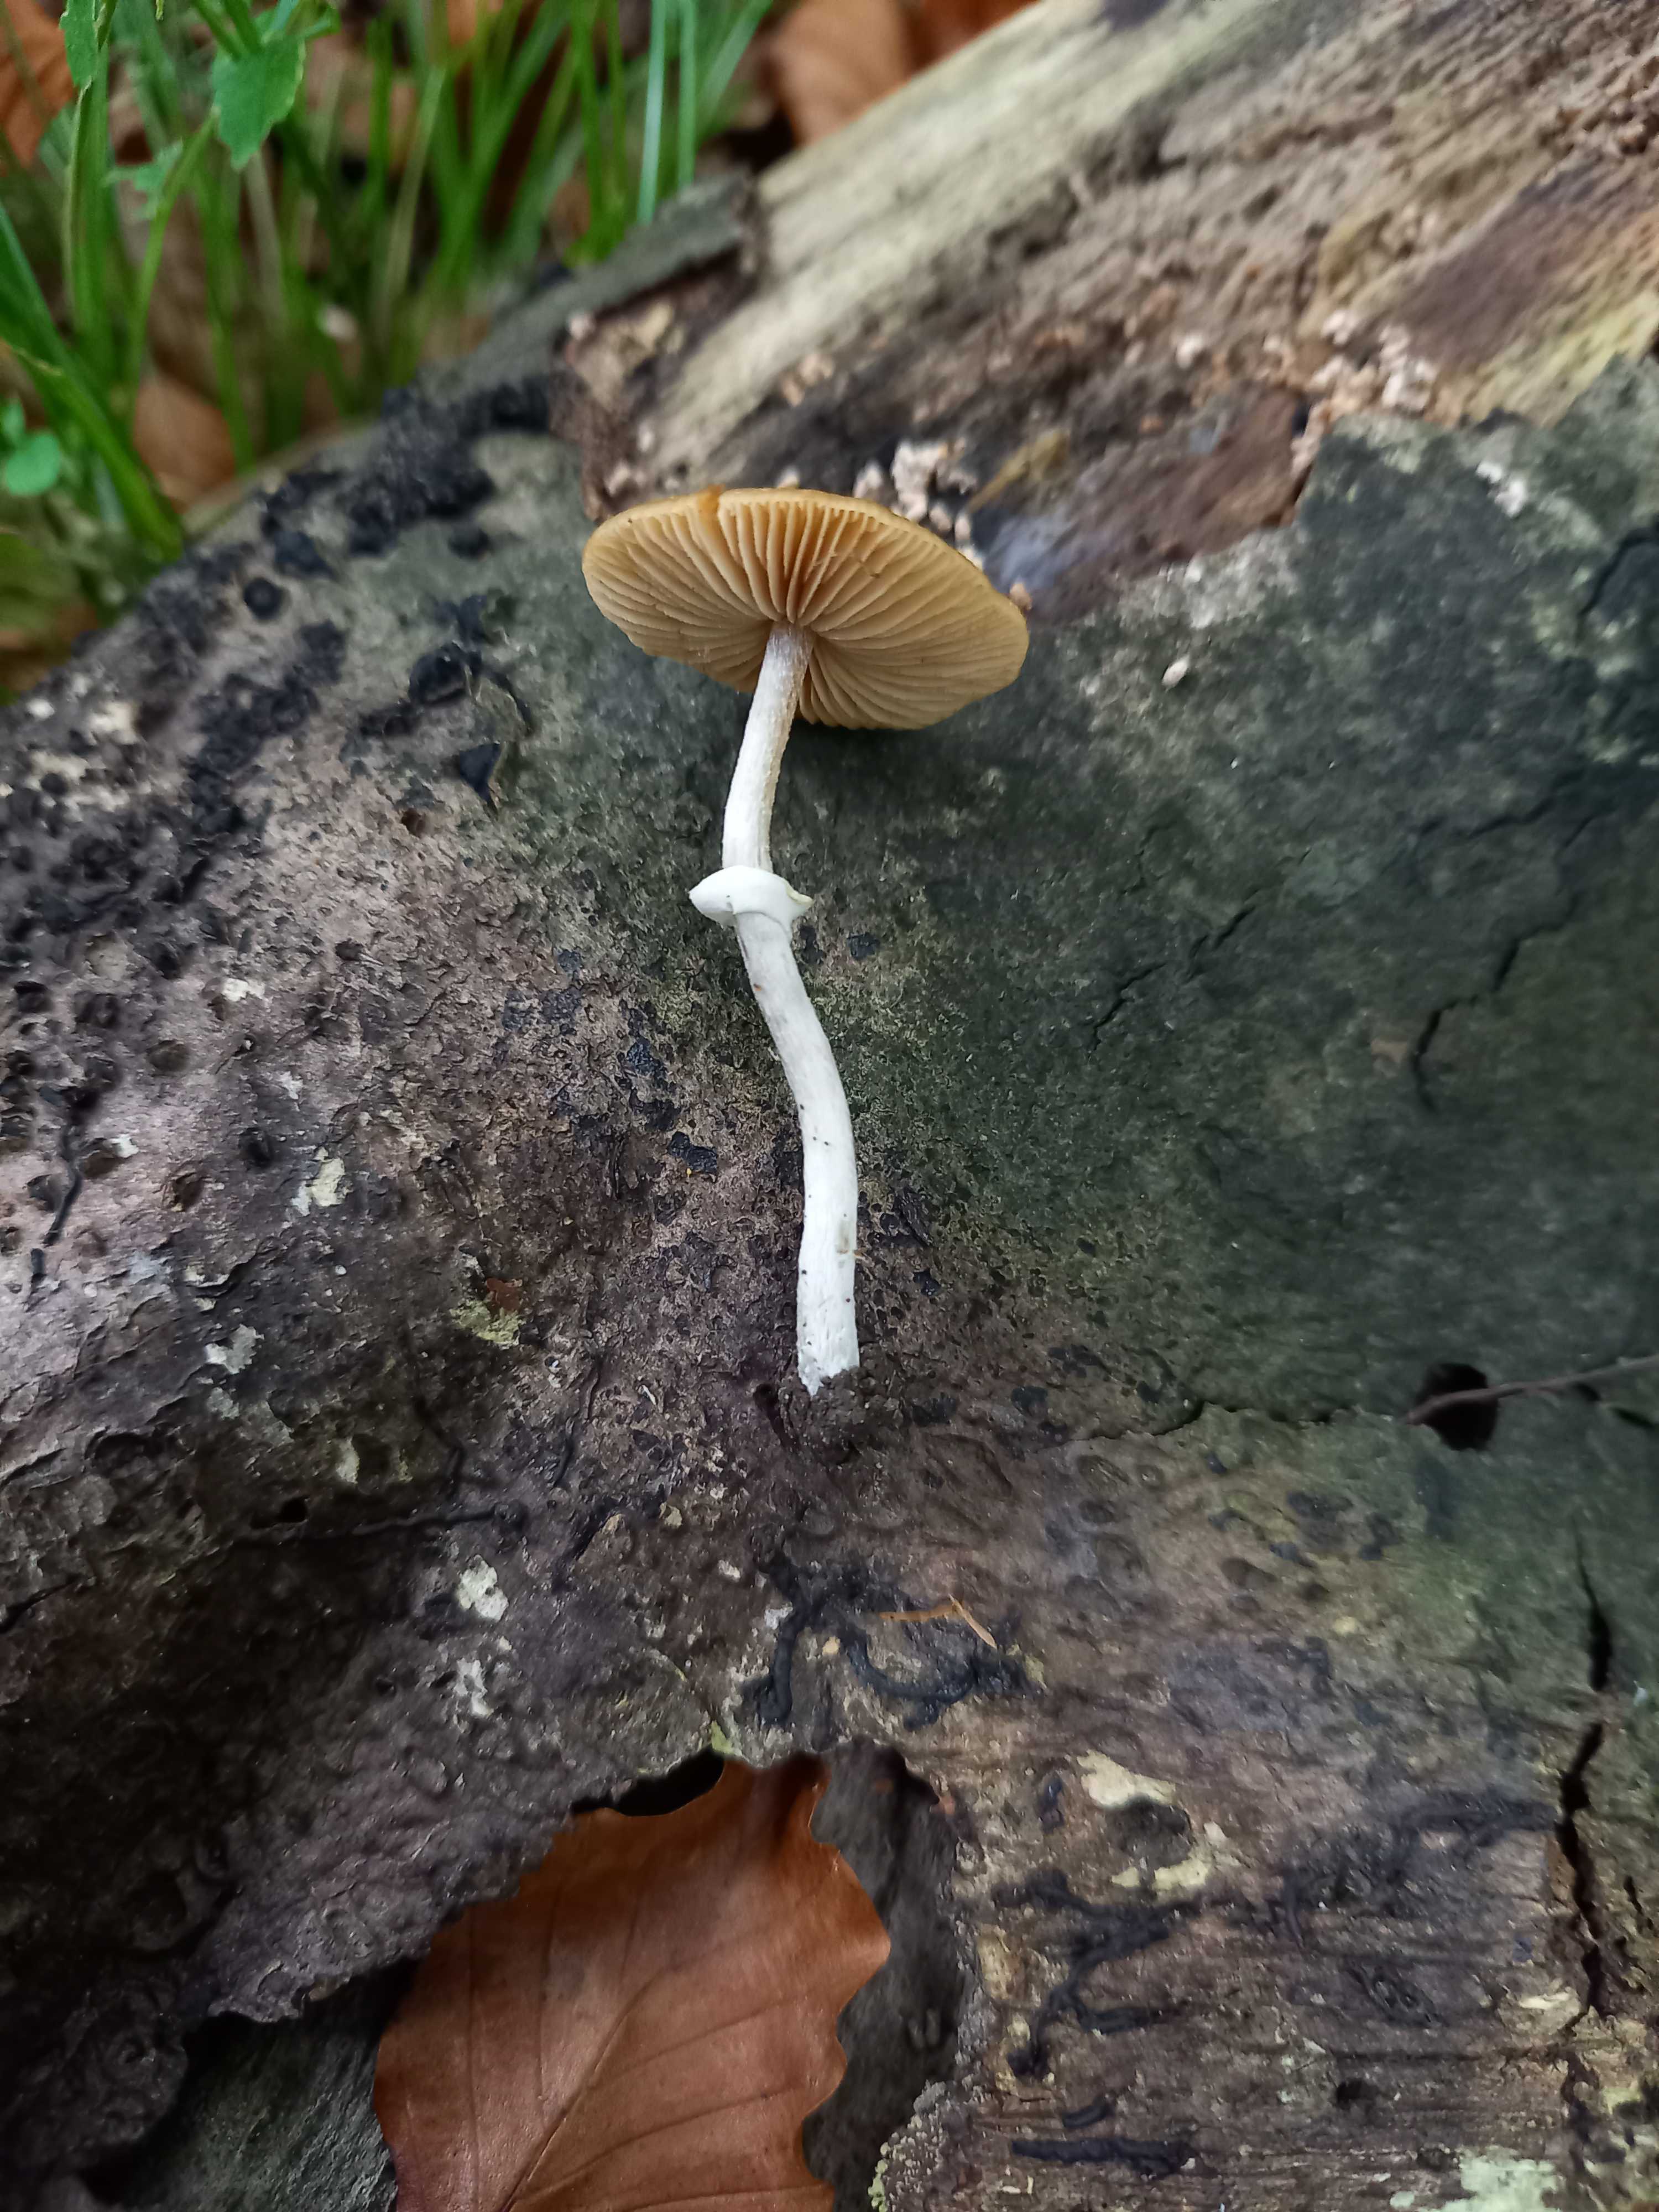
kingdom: Fungi
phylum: Basidiomycota
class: Agaricomycetes
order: Agaricales
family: Bolbitiaceae
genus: Pholiotina
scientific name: Pholiotina
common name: dansehat
